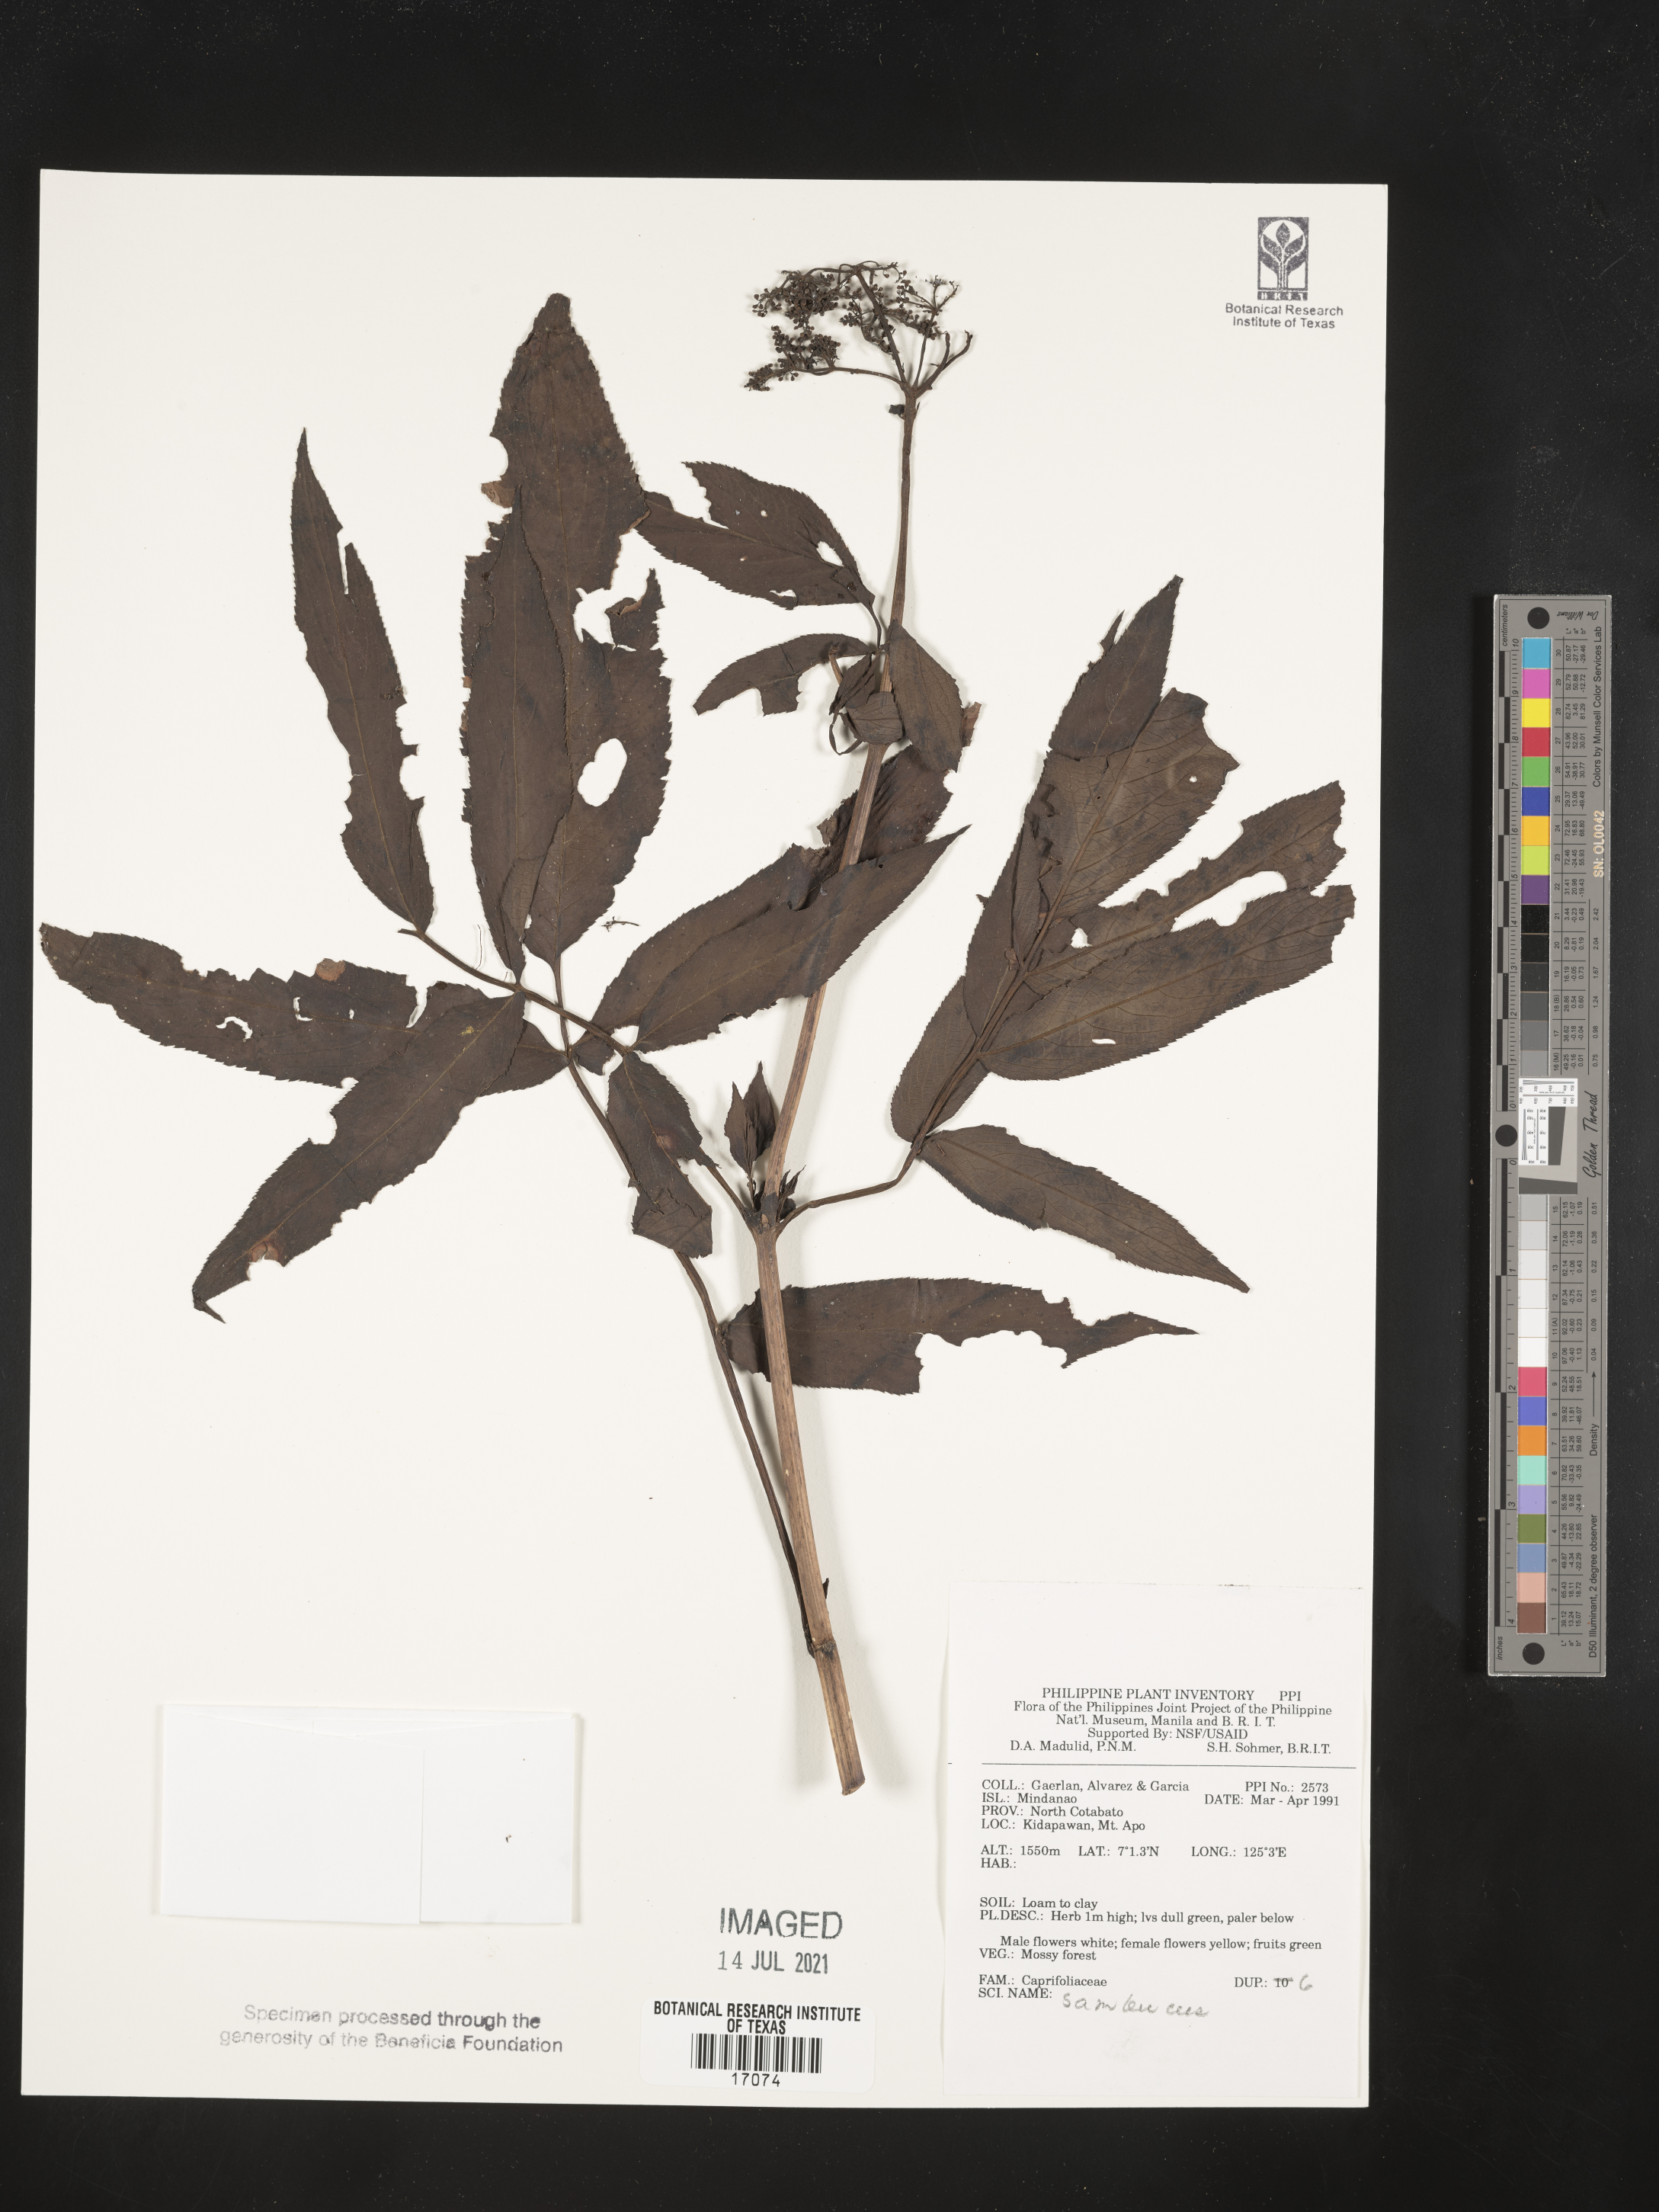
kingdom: Plantae
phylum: Tracheophyta
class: Magnoliopsida
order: Dipsacales
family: Viburnaceae
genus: Sambucus
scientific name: Sambucus
